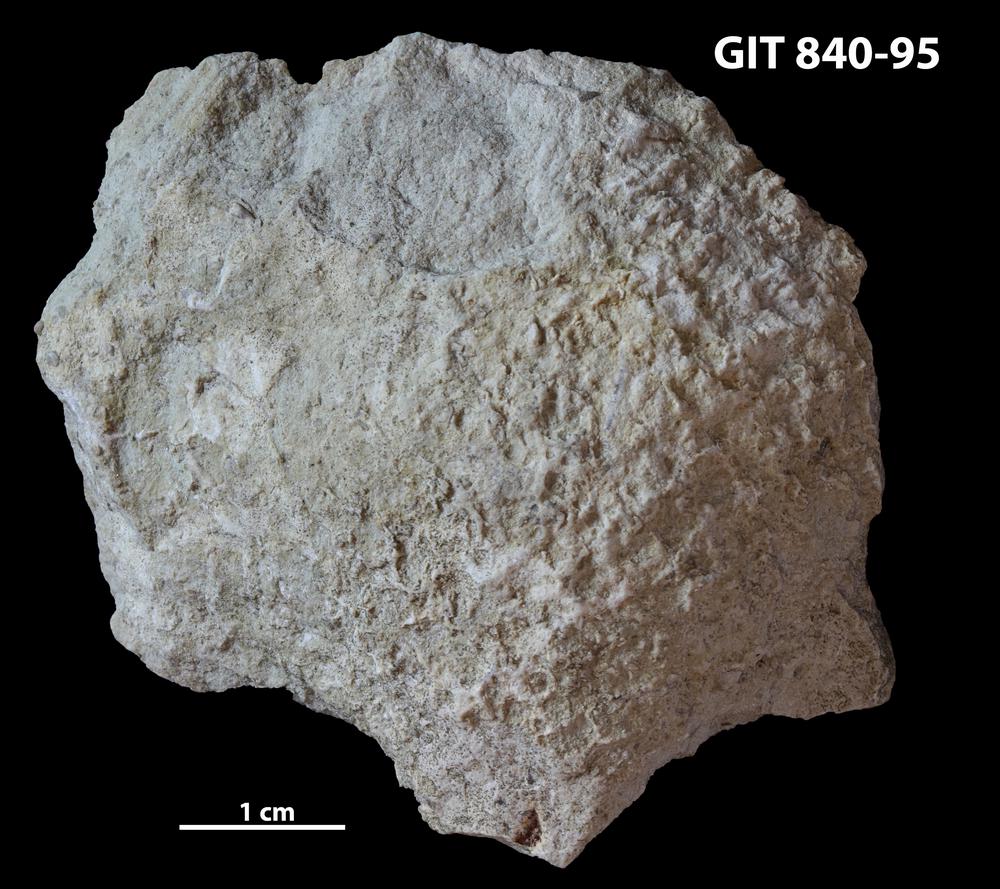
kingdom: Animalia
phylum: Porifera
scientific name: Porifera
